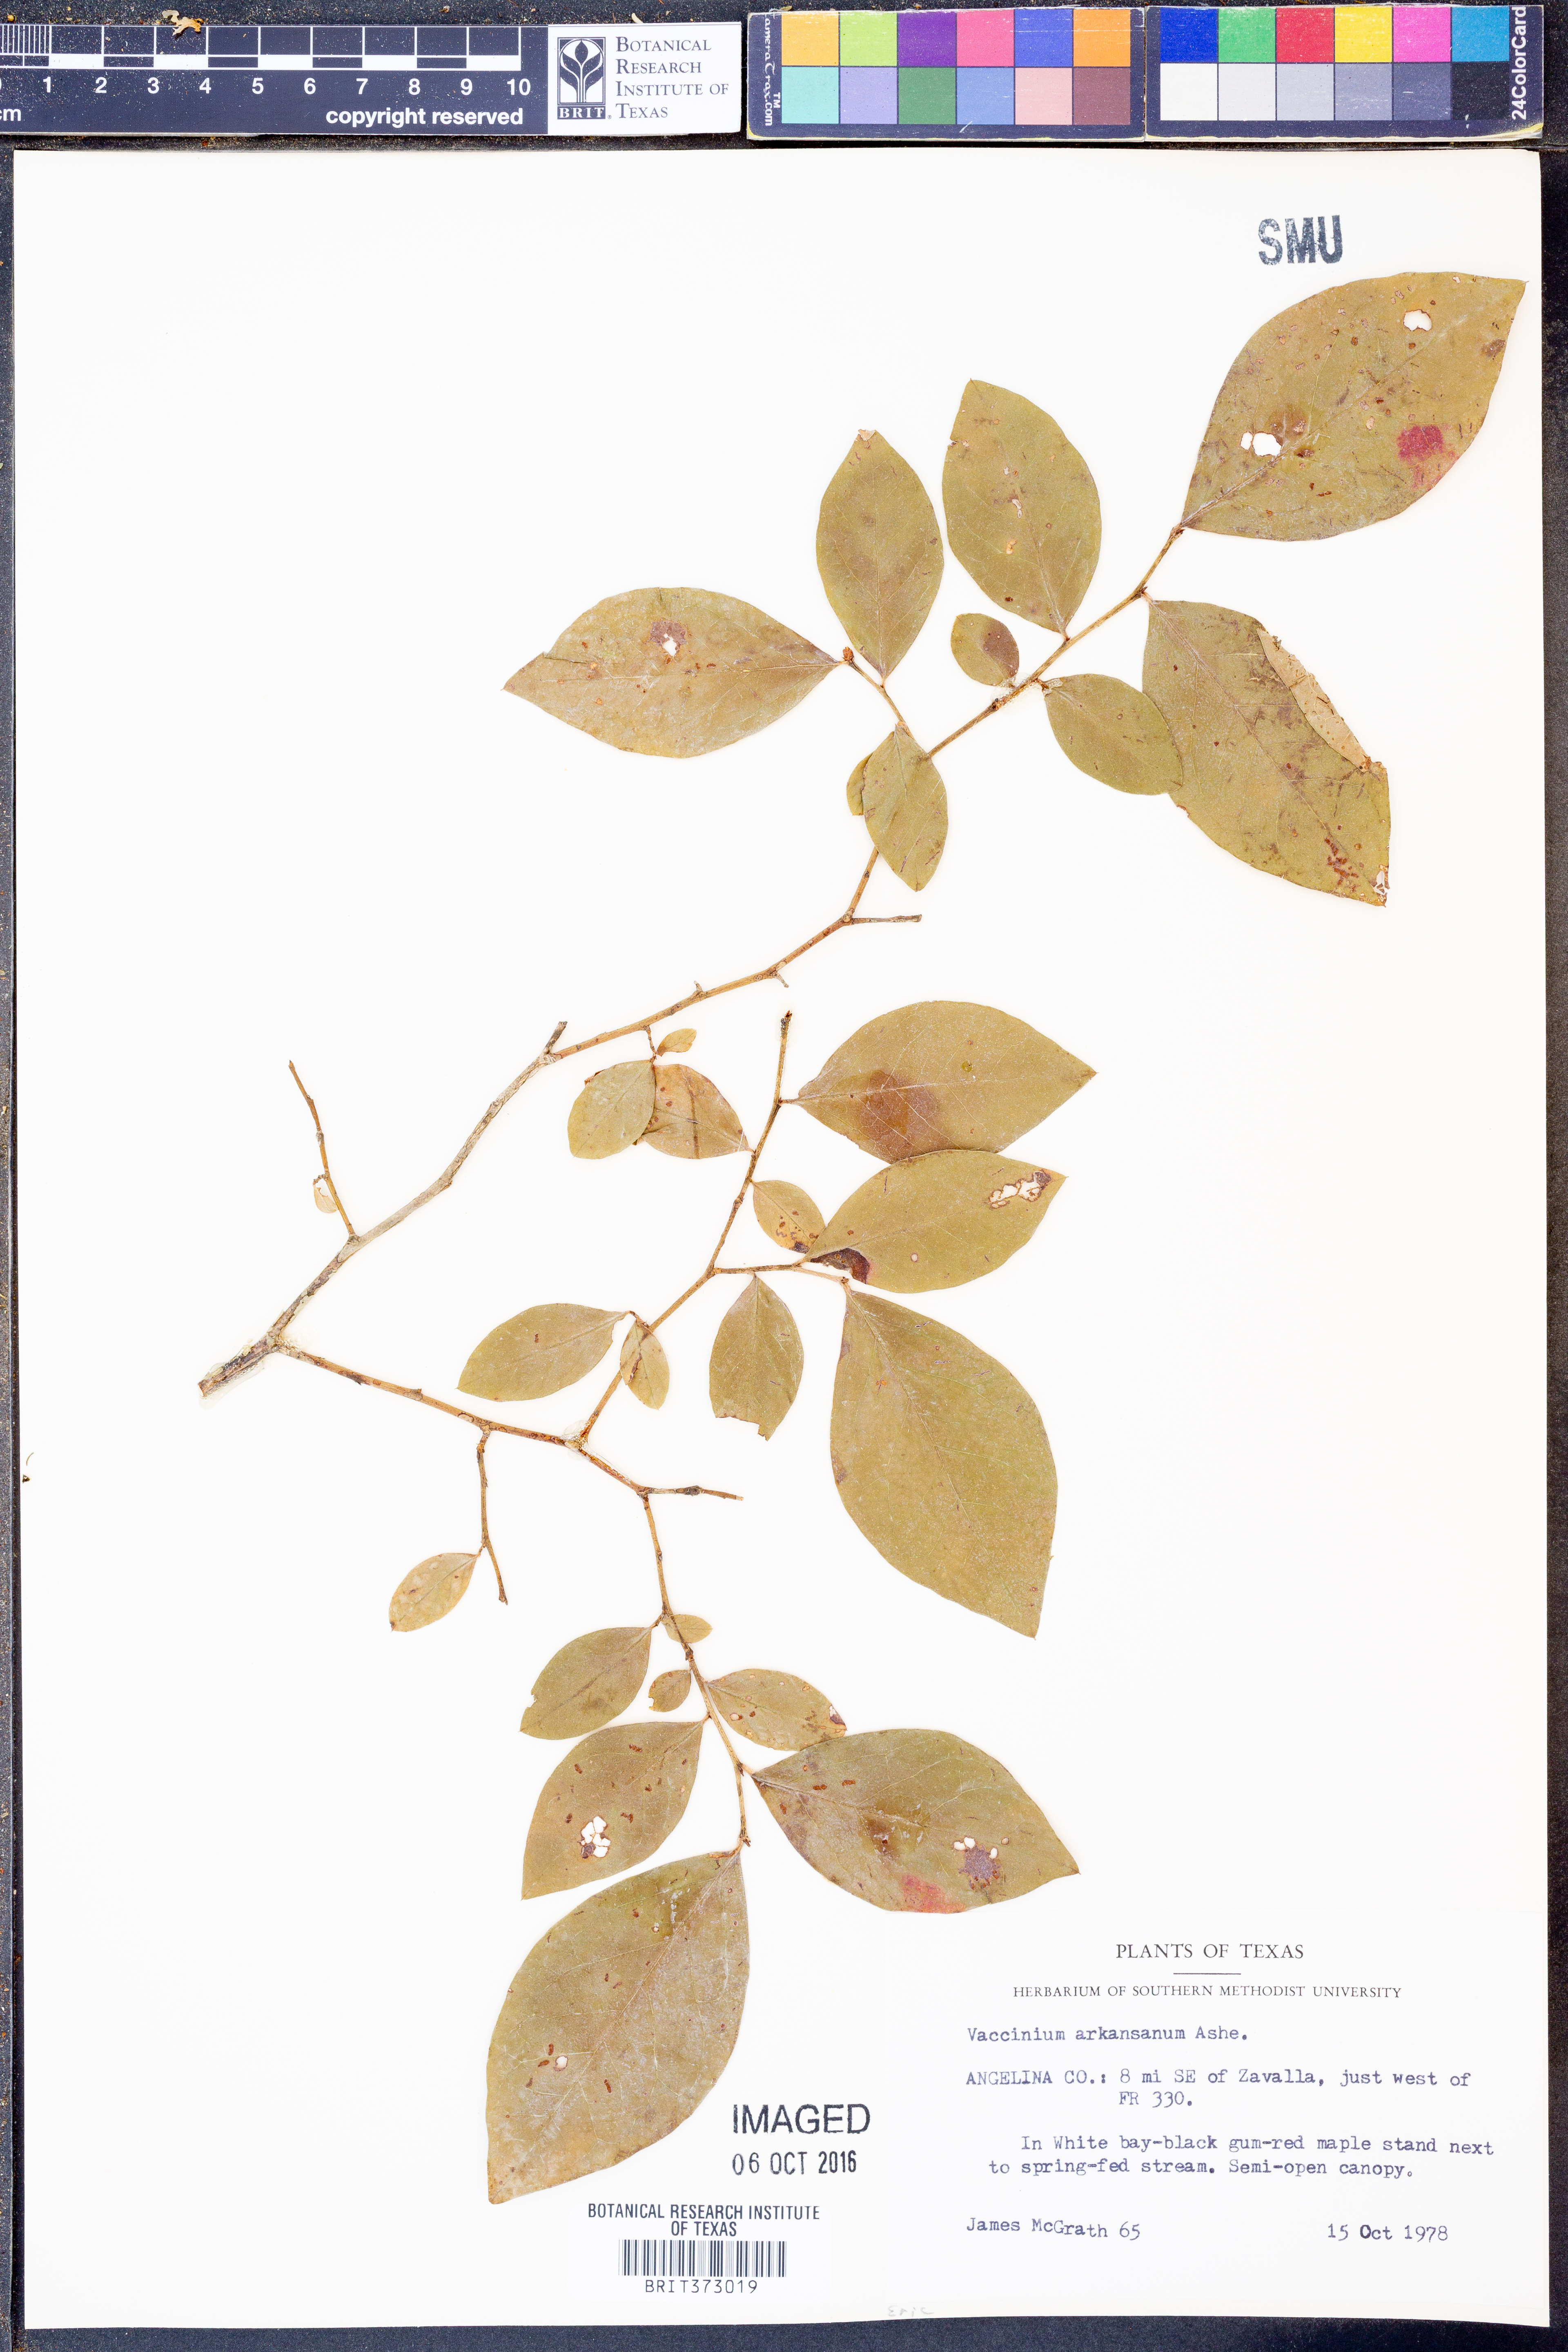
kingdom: Plantae
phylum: Tracheophyta
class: Magnoliopsida
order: Ericales
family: Ericaceae
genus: Vaccinium
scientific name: Vaccinium corymbosum
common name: Blueberry
